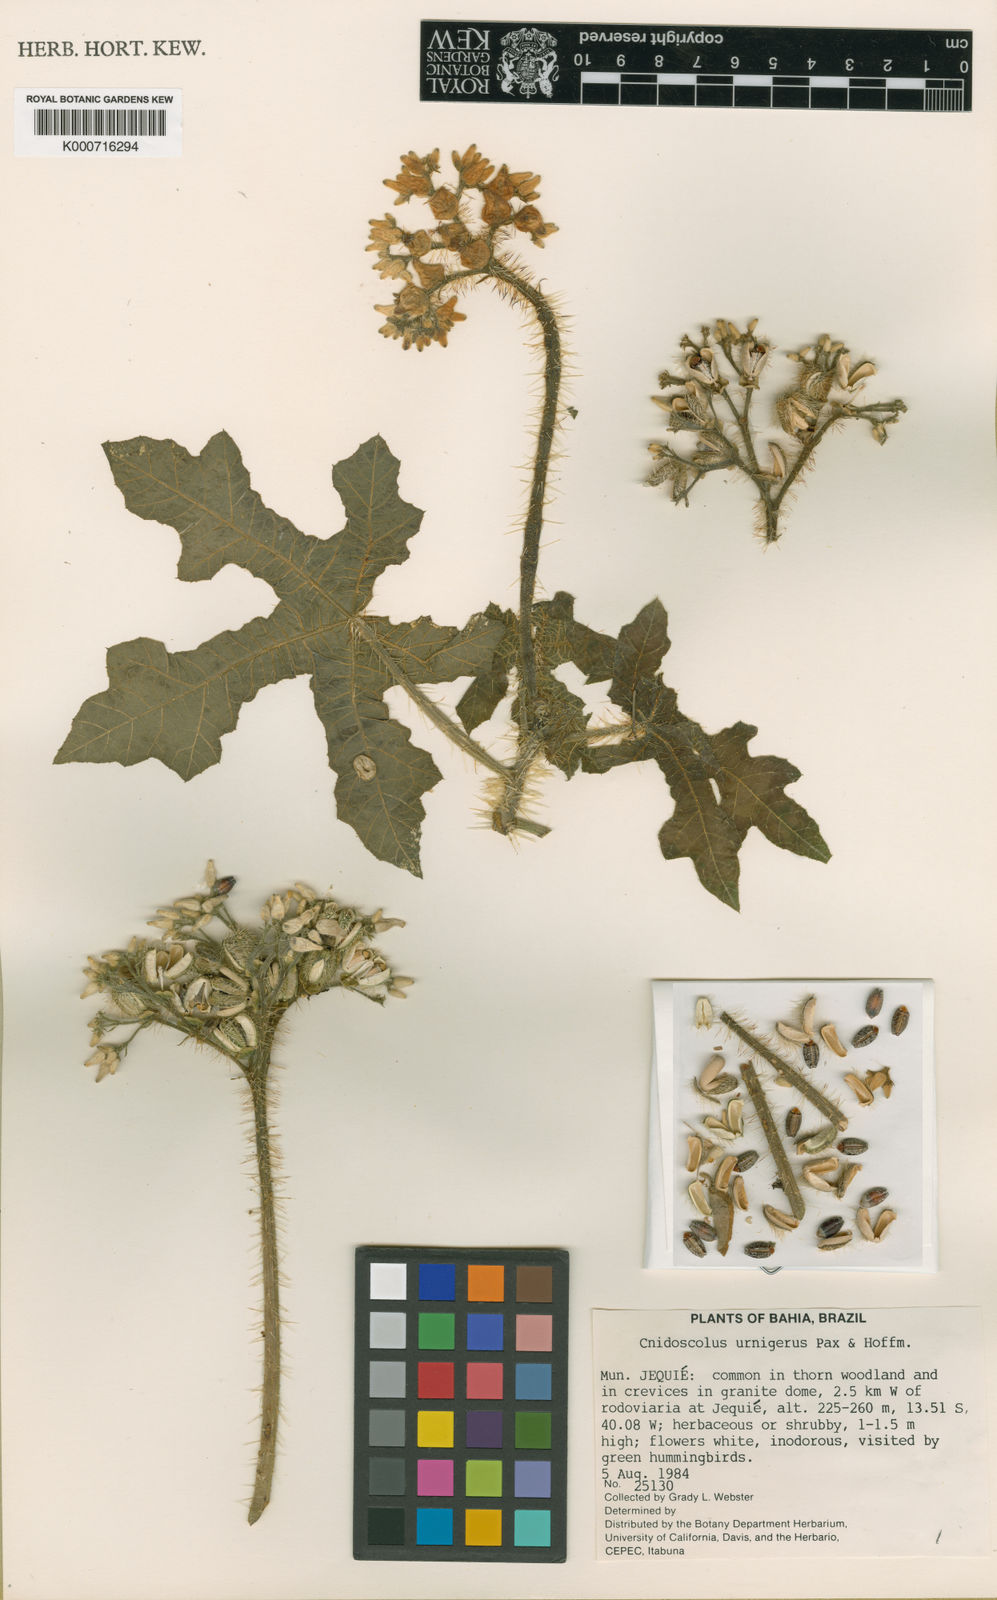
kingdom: Plantae
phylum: Tracheophyta
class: Magnoliopsida
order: Malpighiales
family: Euphorbiaceae
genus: Cnidoscolus
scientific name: Cnidoscolus urnigerus
